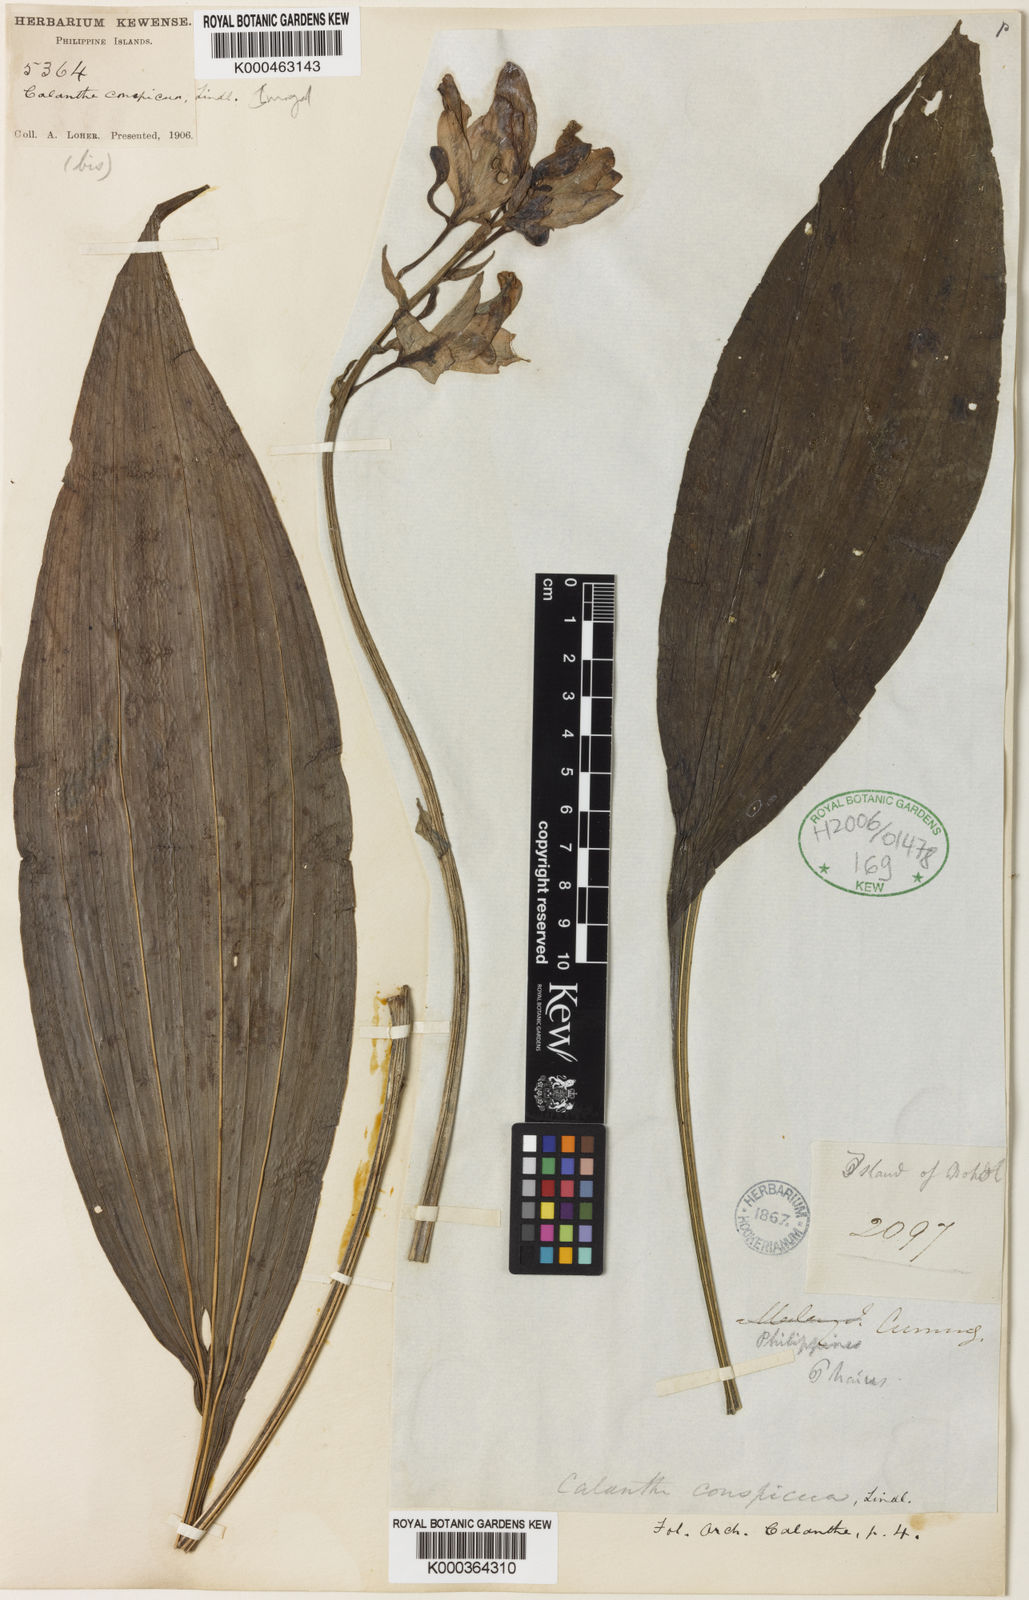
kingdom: Plantae
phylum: Tracheophyta
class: Liliopsida
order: Asparagales
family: Orchidaceae
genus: Calanthe
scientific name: Calanthe conspicua
